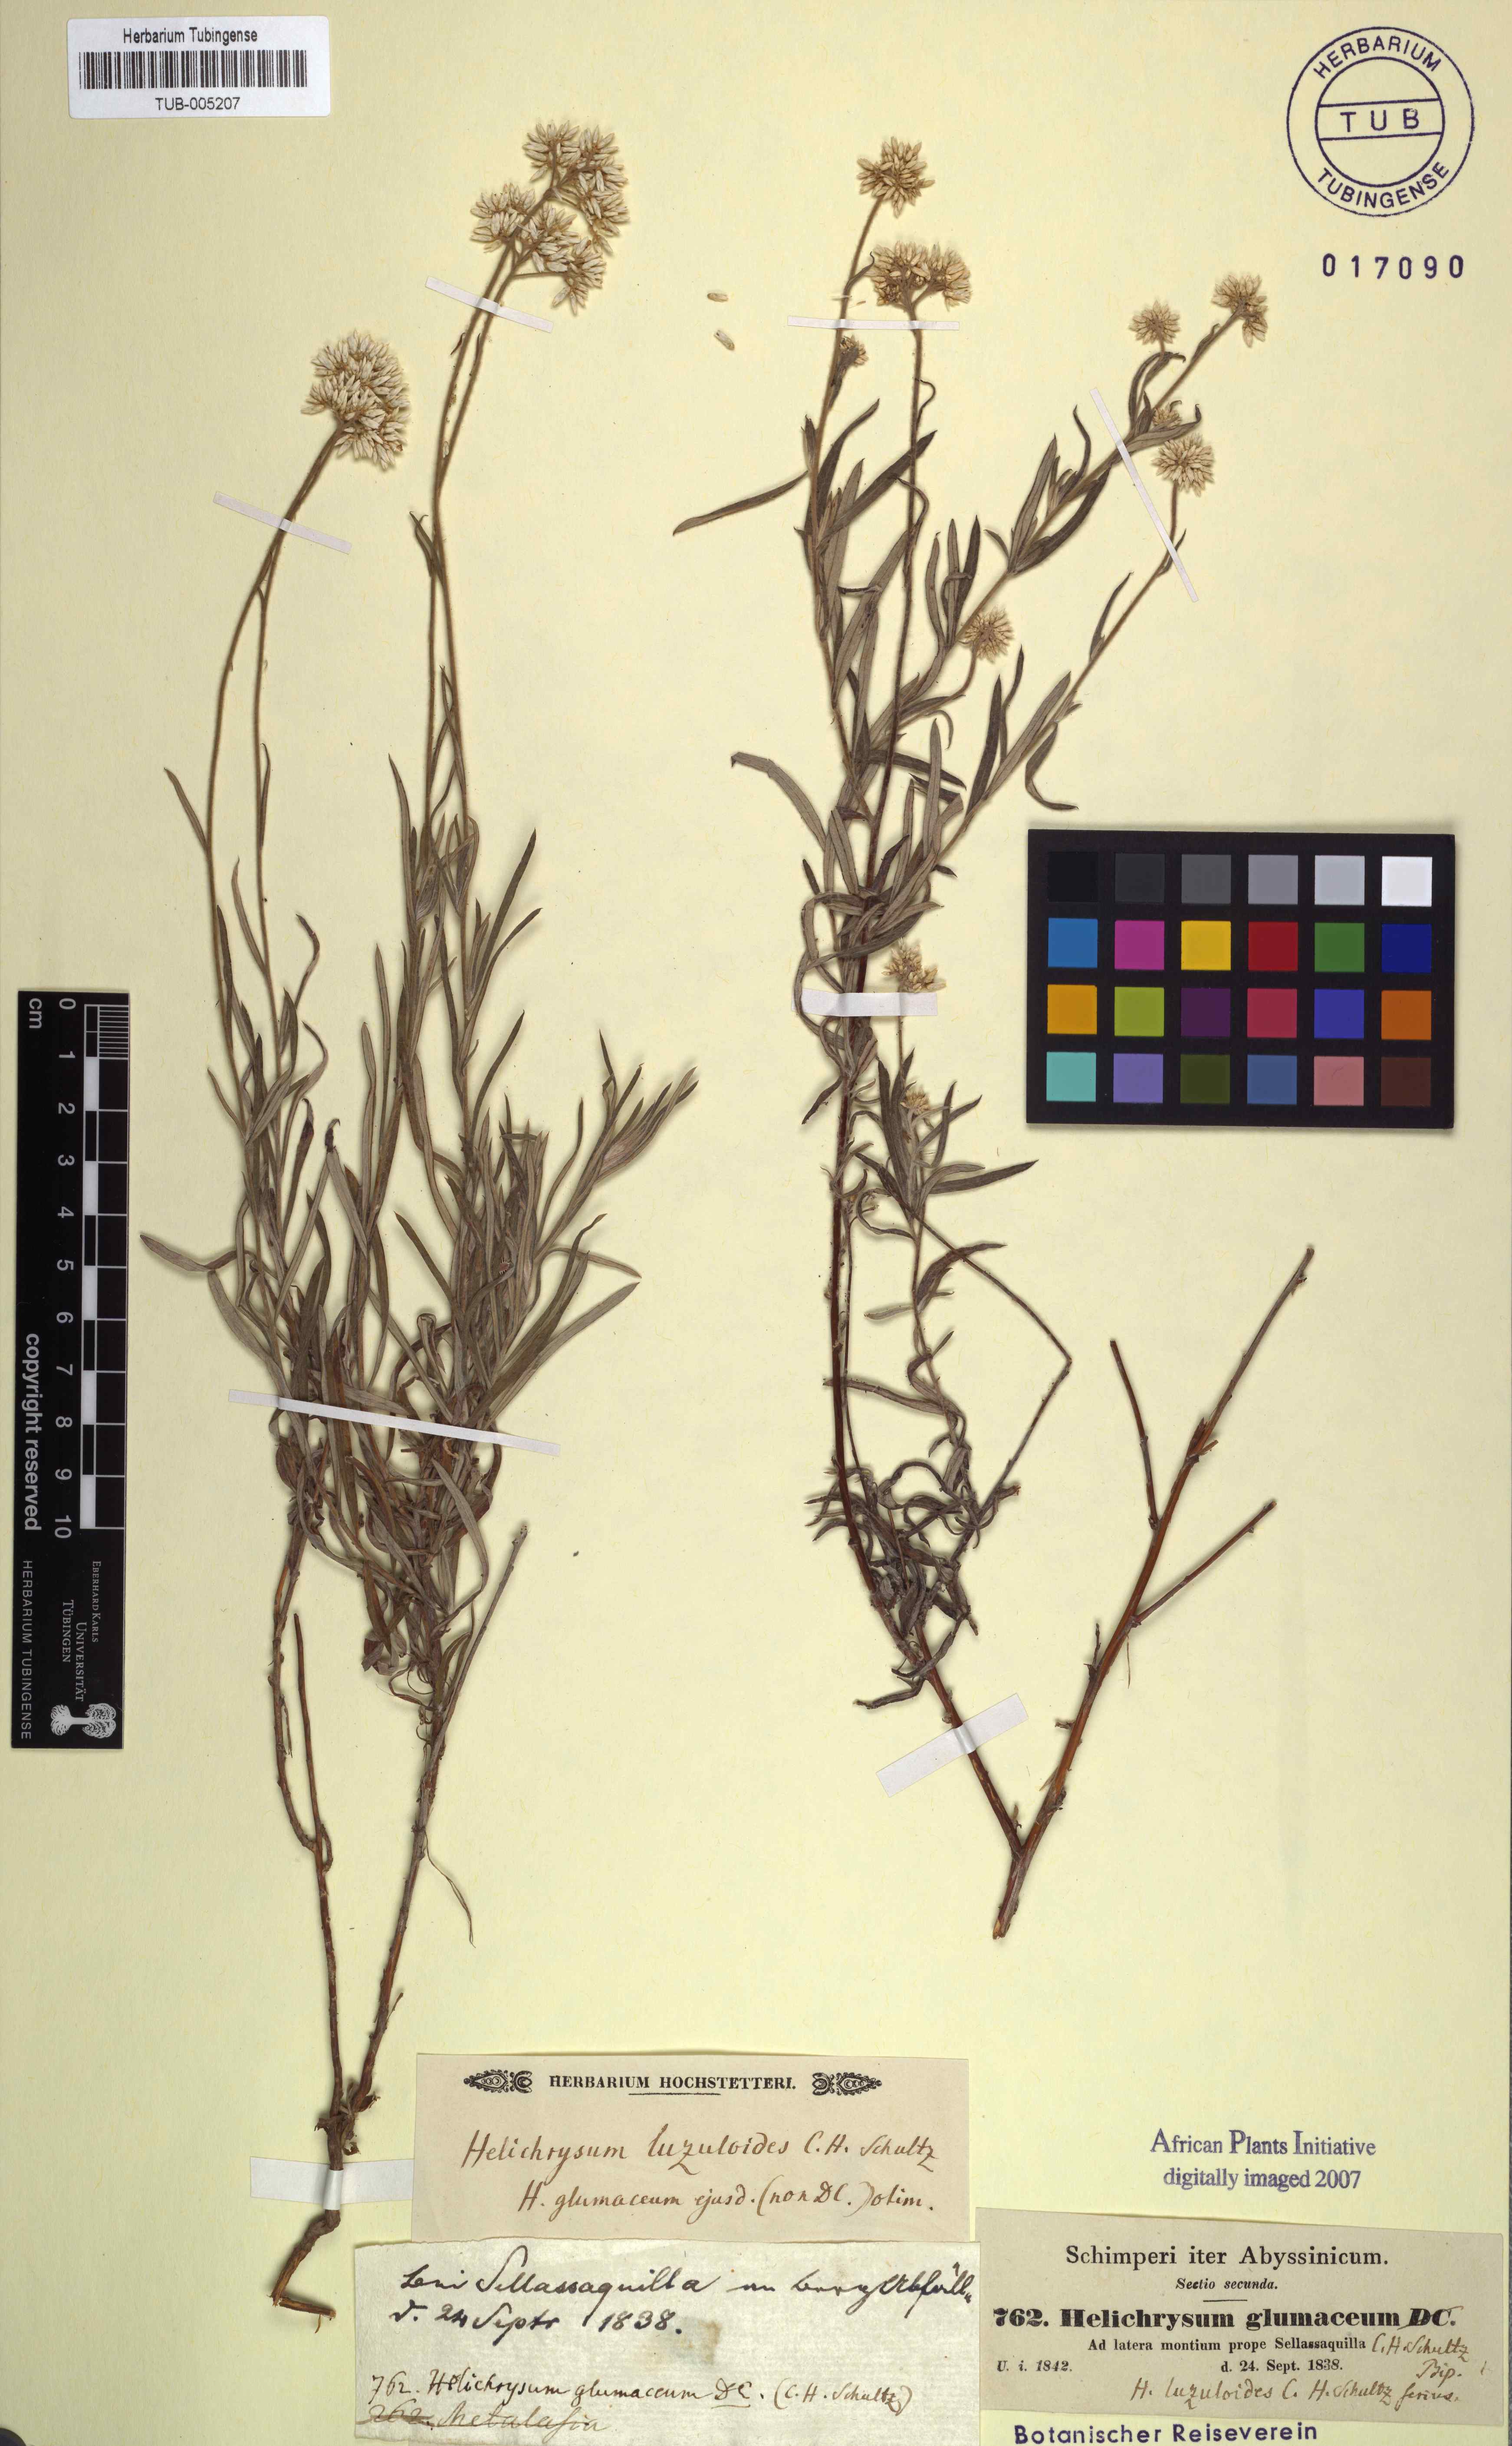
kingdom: Plantae
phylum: Tracheophyta
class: Magnoliopsida
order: Asterales
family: Asteraceae
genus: Helichrysum
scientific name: Helichrysum glumaceum
